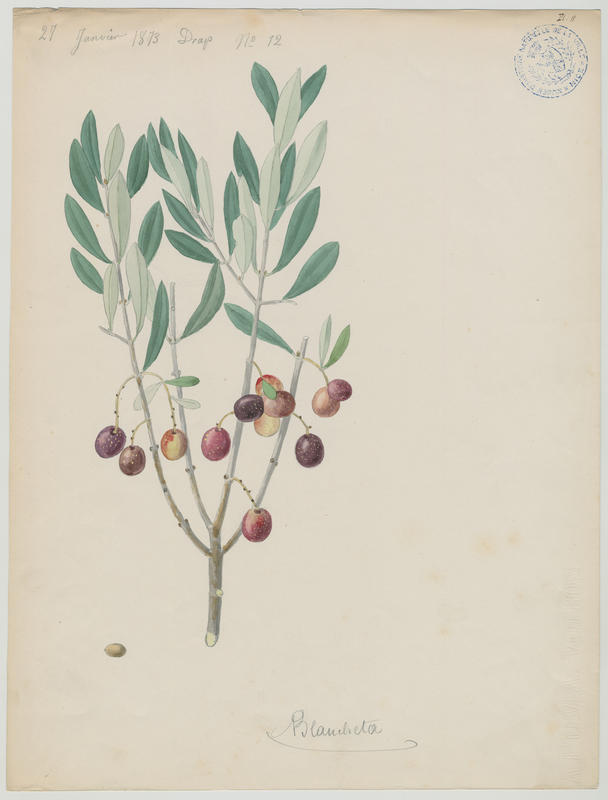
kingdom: Plantae
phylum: Tracheophyta
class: Magnoliopsida
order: Lamiales
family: Oleaceae
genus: Olea
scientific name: Olea europaea
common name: Olive
